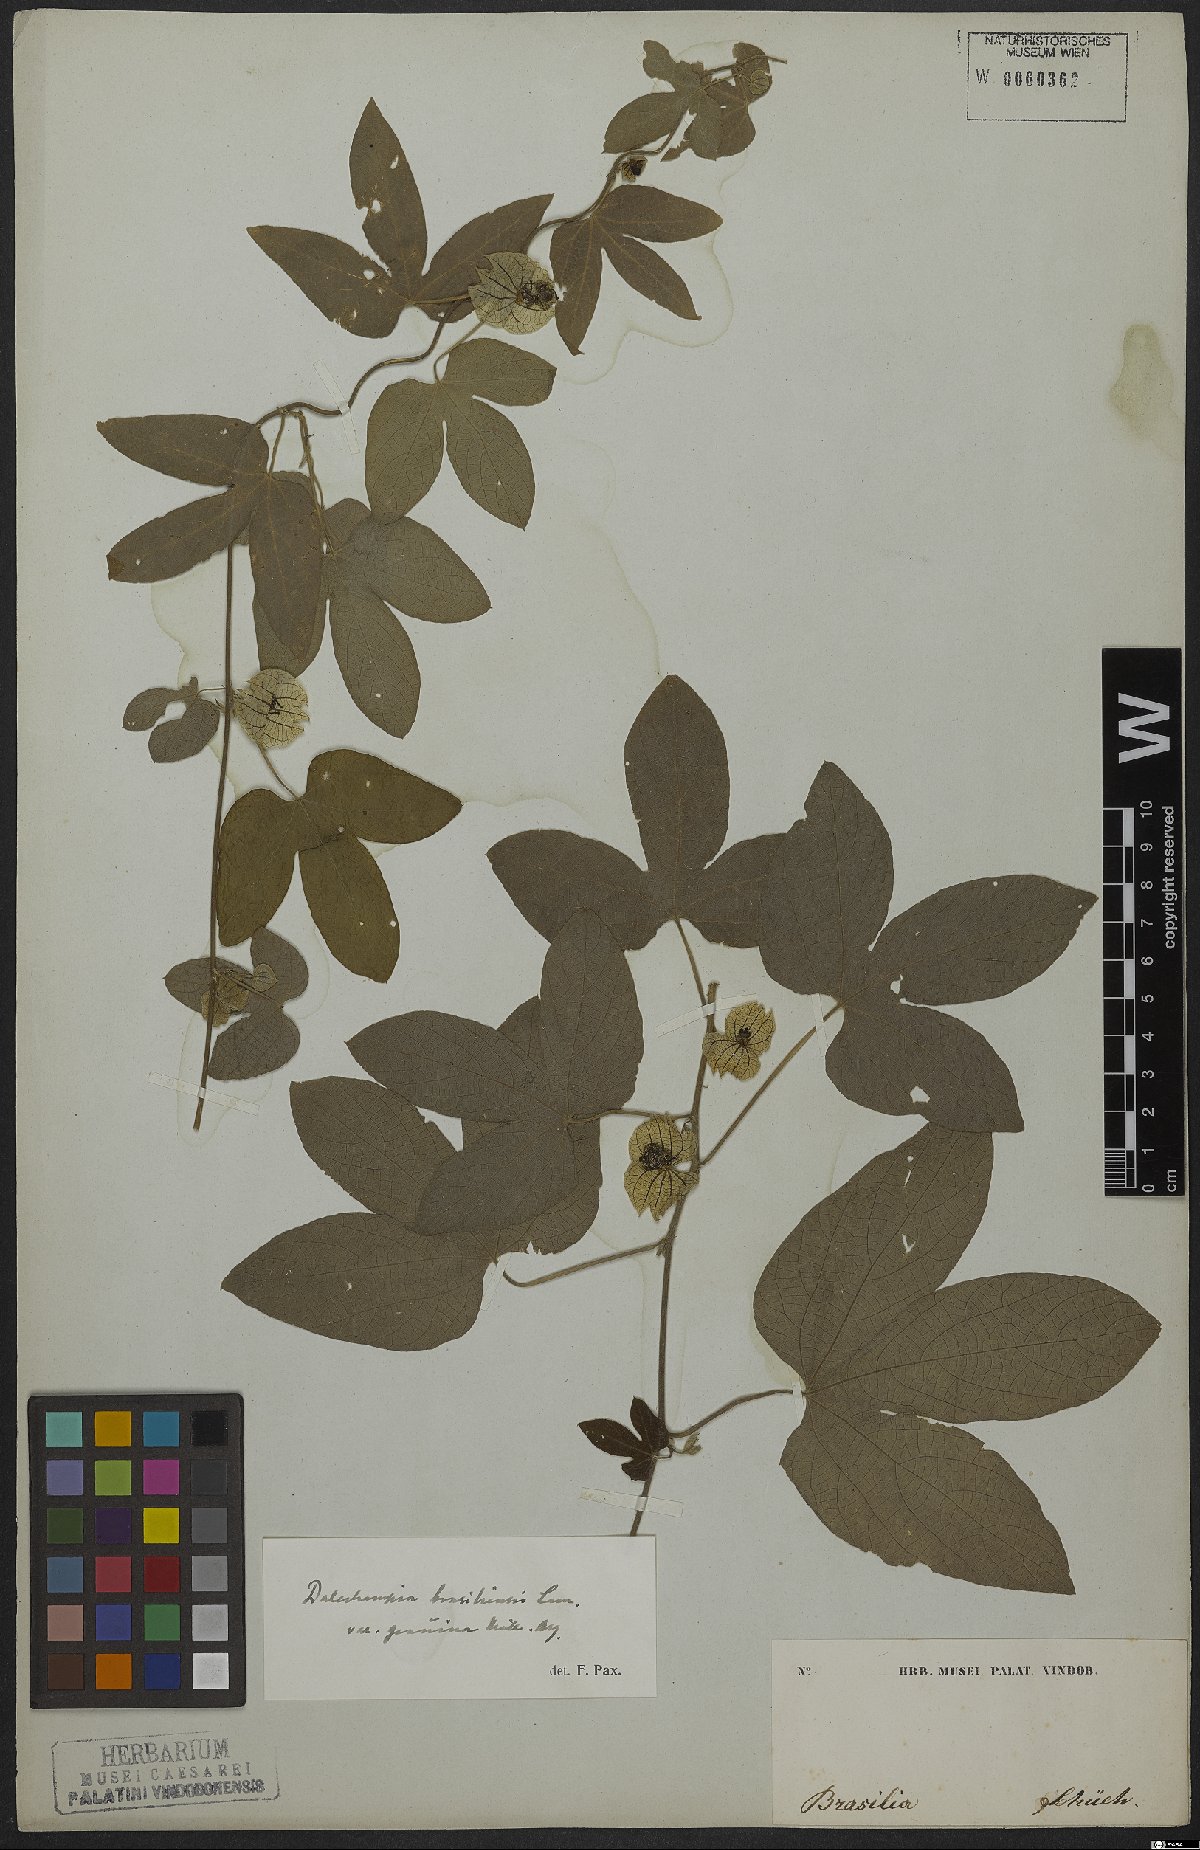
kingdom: Plantae
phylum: Tracheophyta
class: Magnoliopsida
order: Malpighiales
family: Euphorbiaceae
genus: Dalechampia
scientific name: Dalechampia brasiliensis
